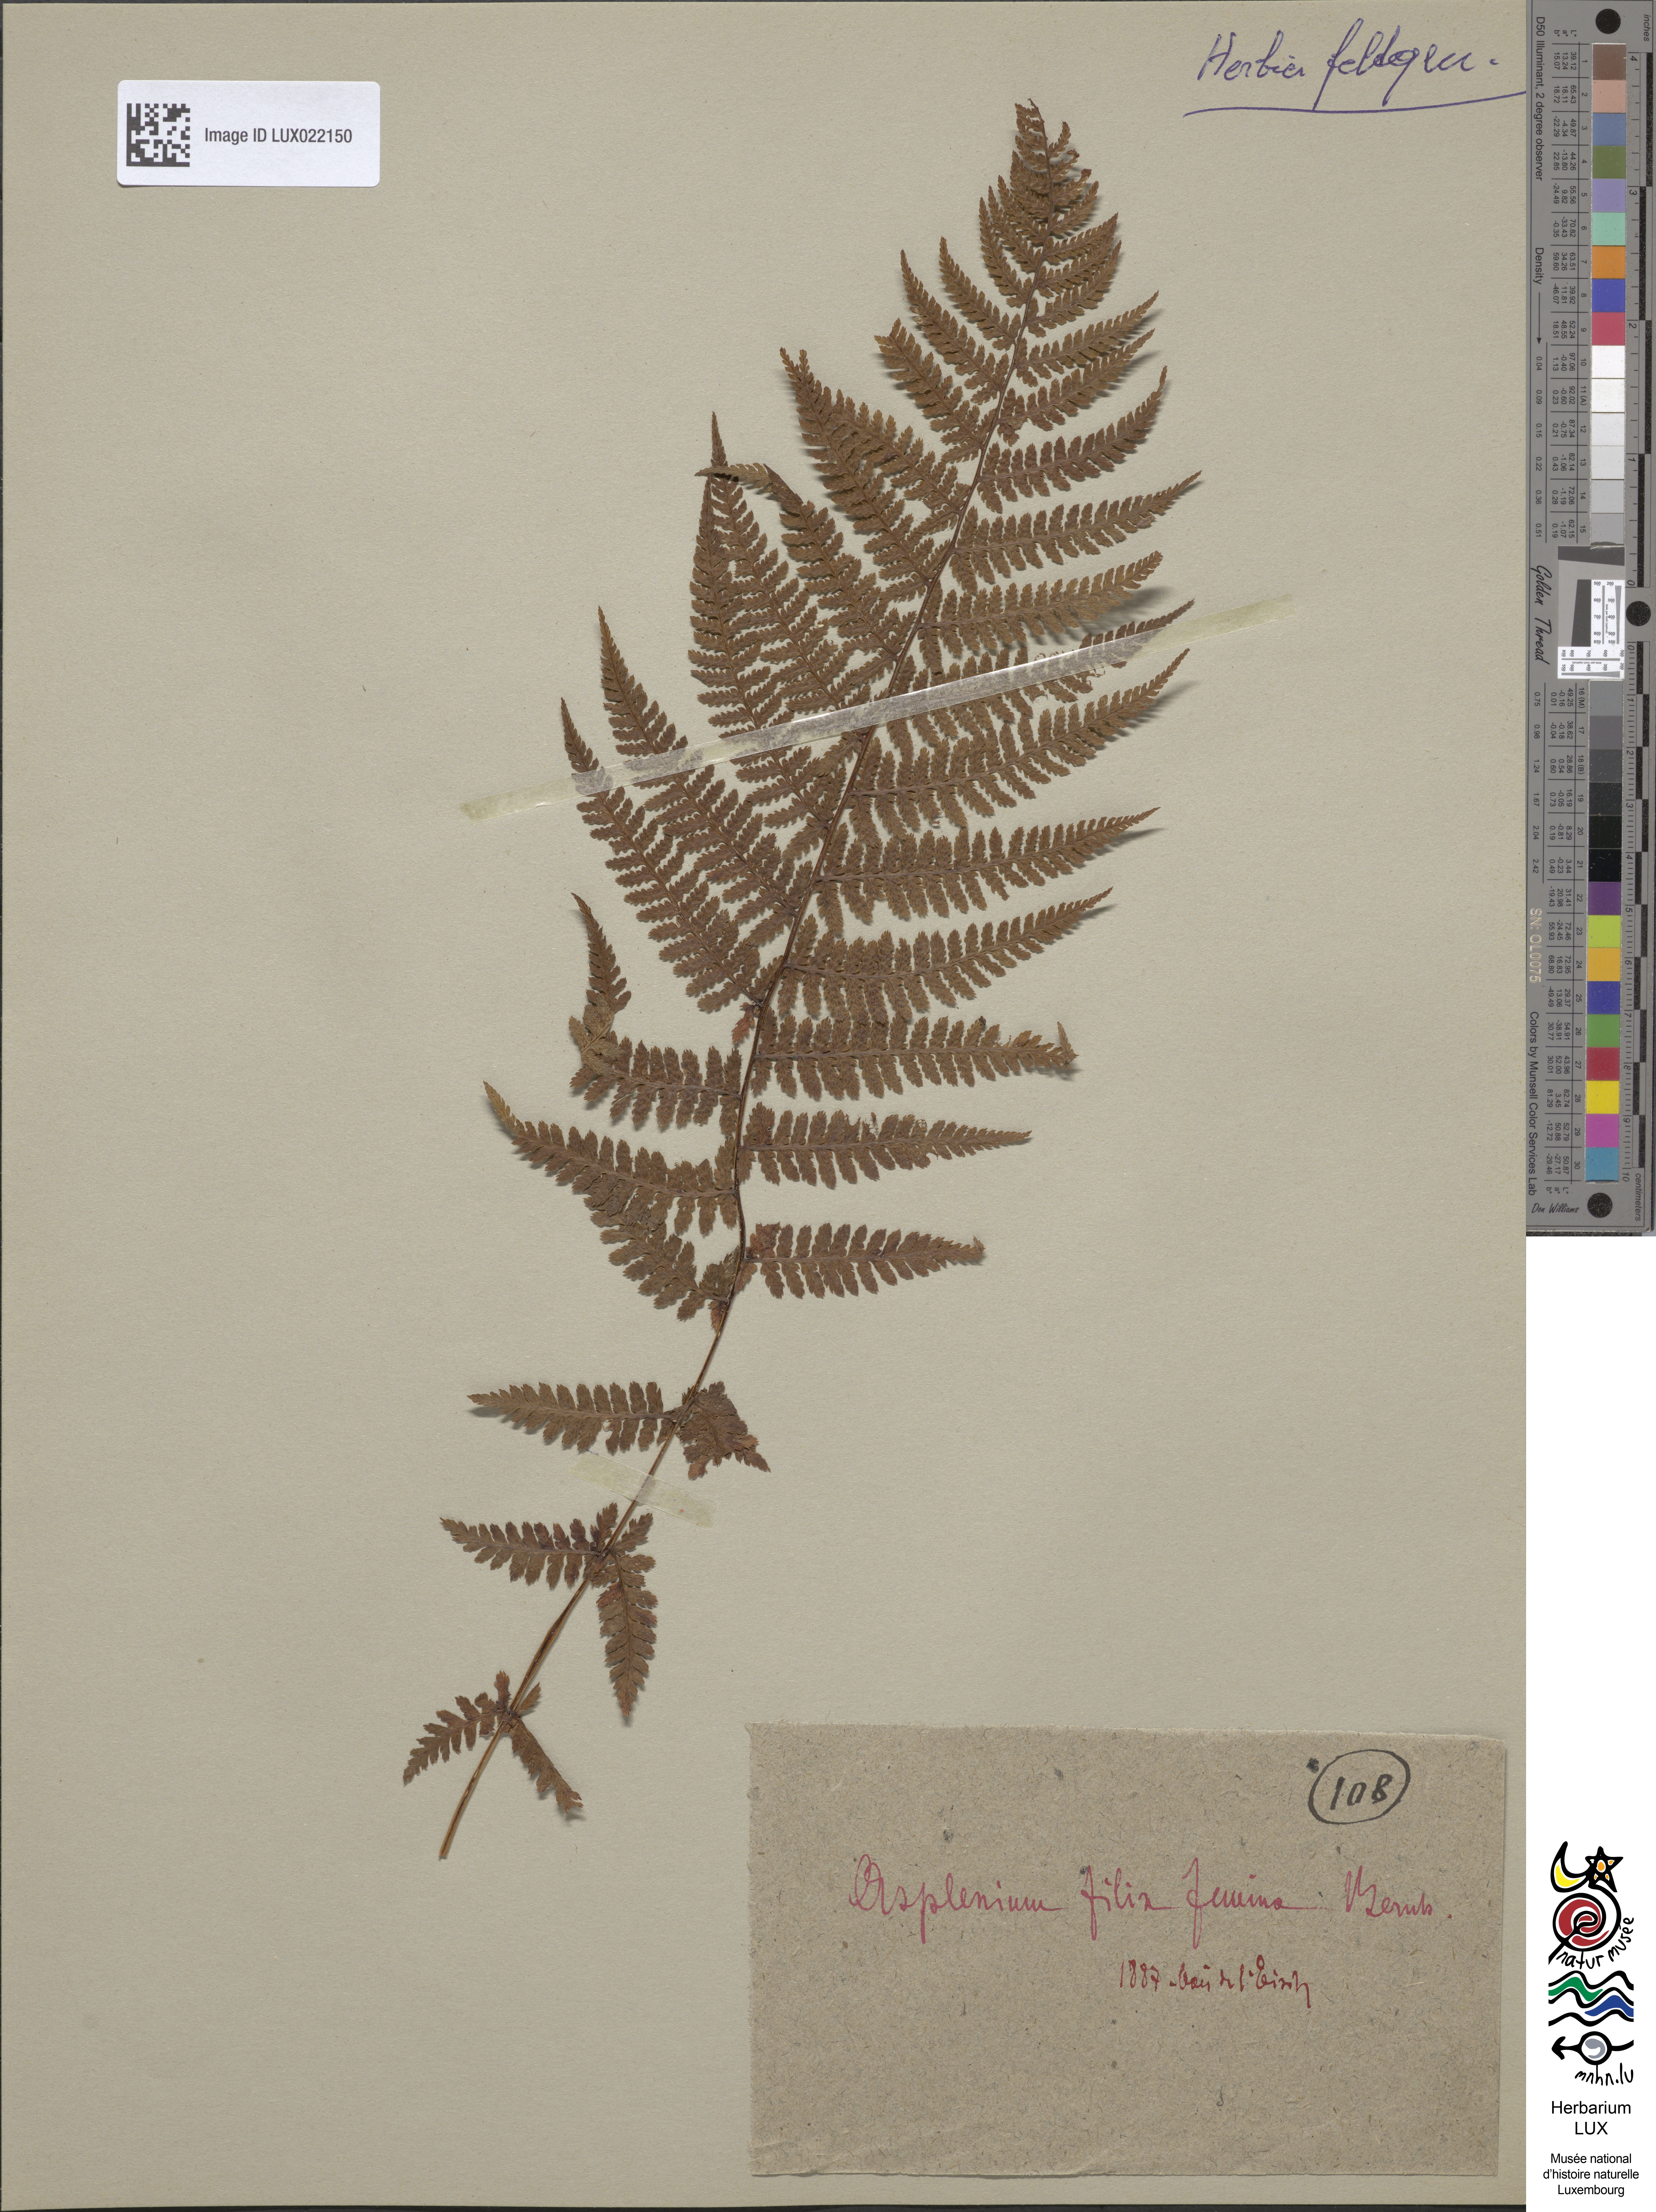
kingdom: Plantae
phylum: Tracheophyta
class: Polypodiopsida
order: Polypodiales
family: Athyriaceae
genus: Athyrium
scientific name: Athyrium filix-femina
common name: Lady fern
